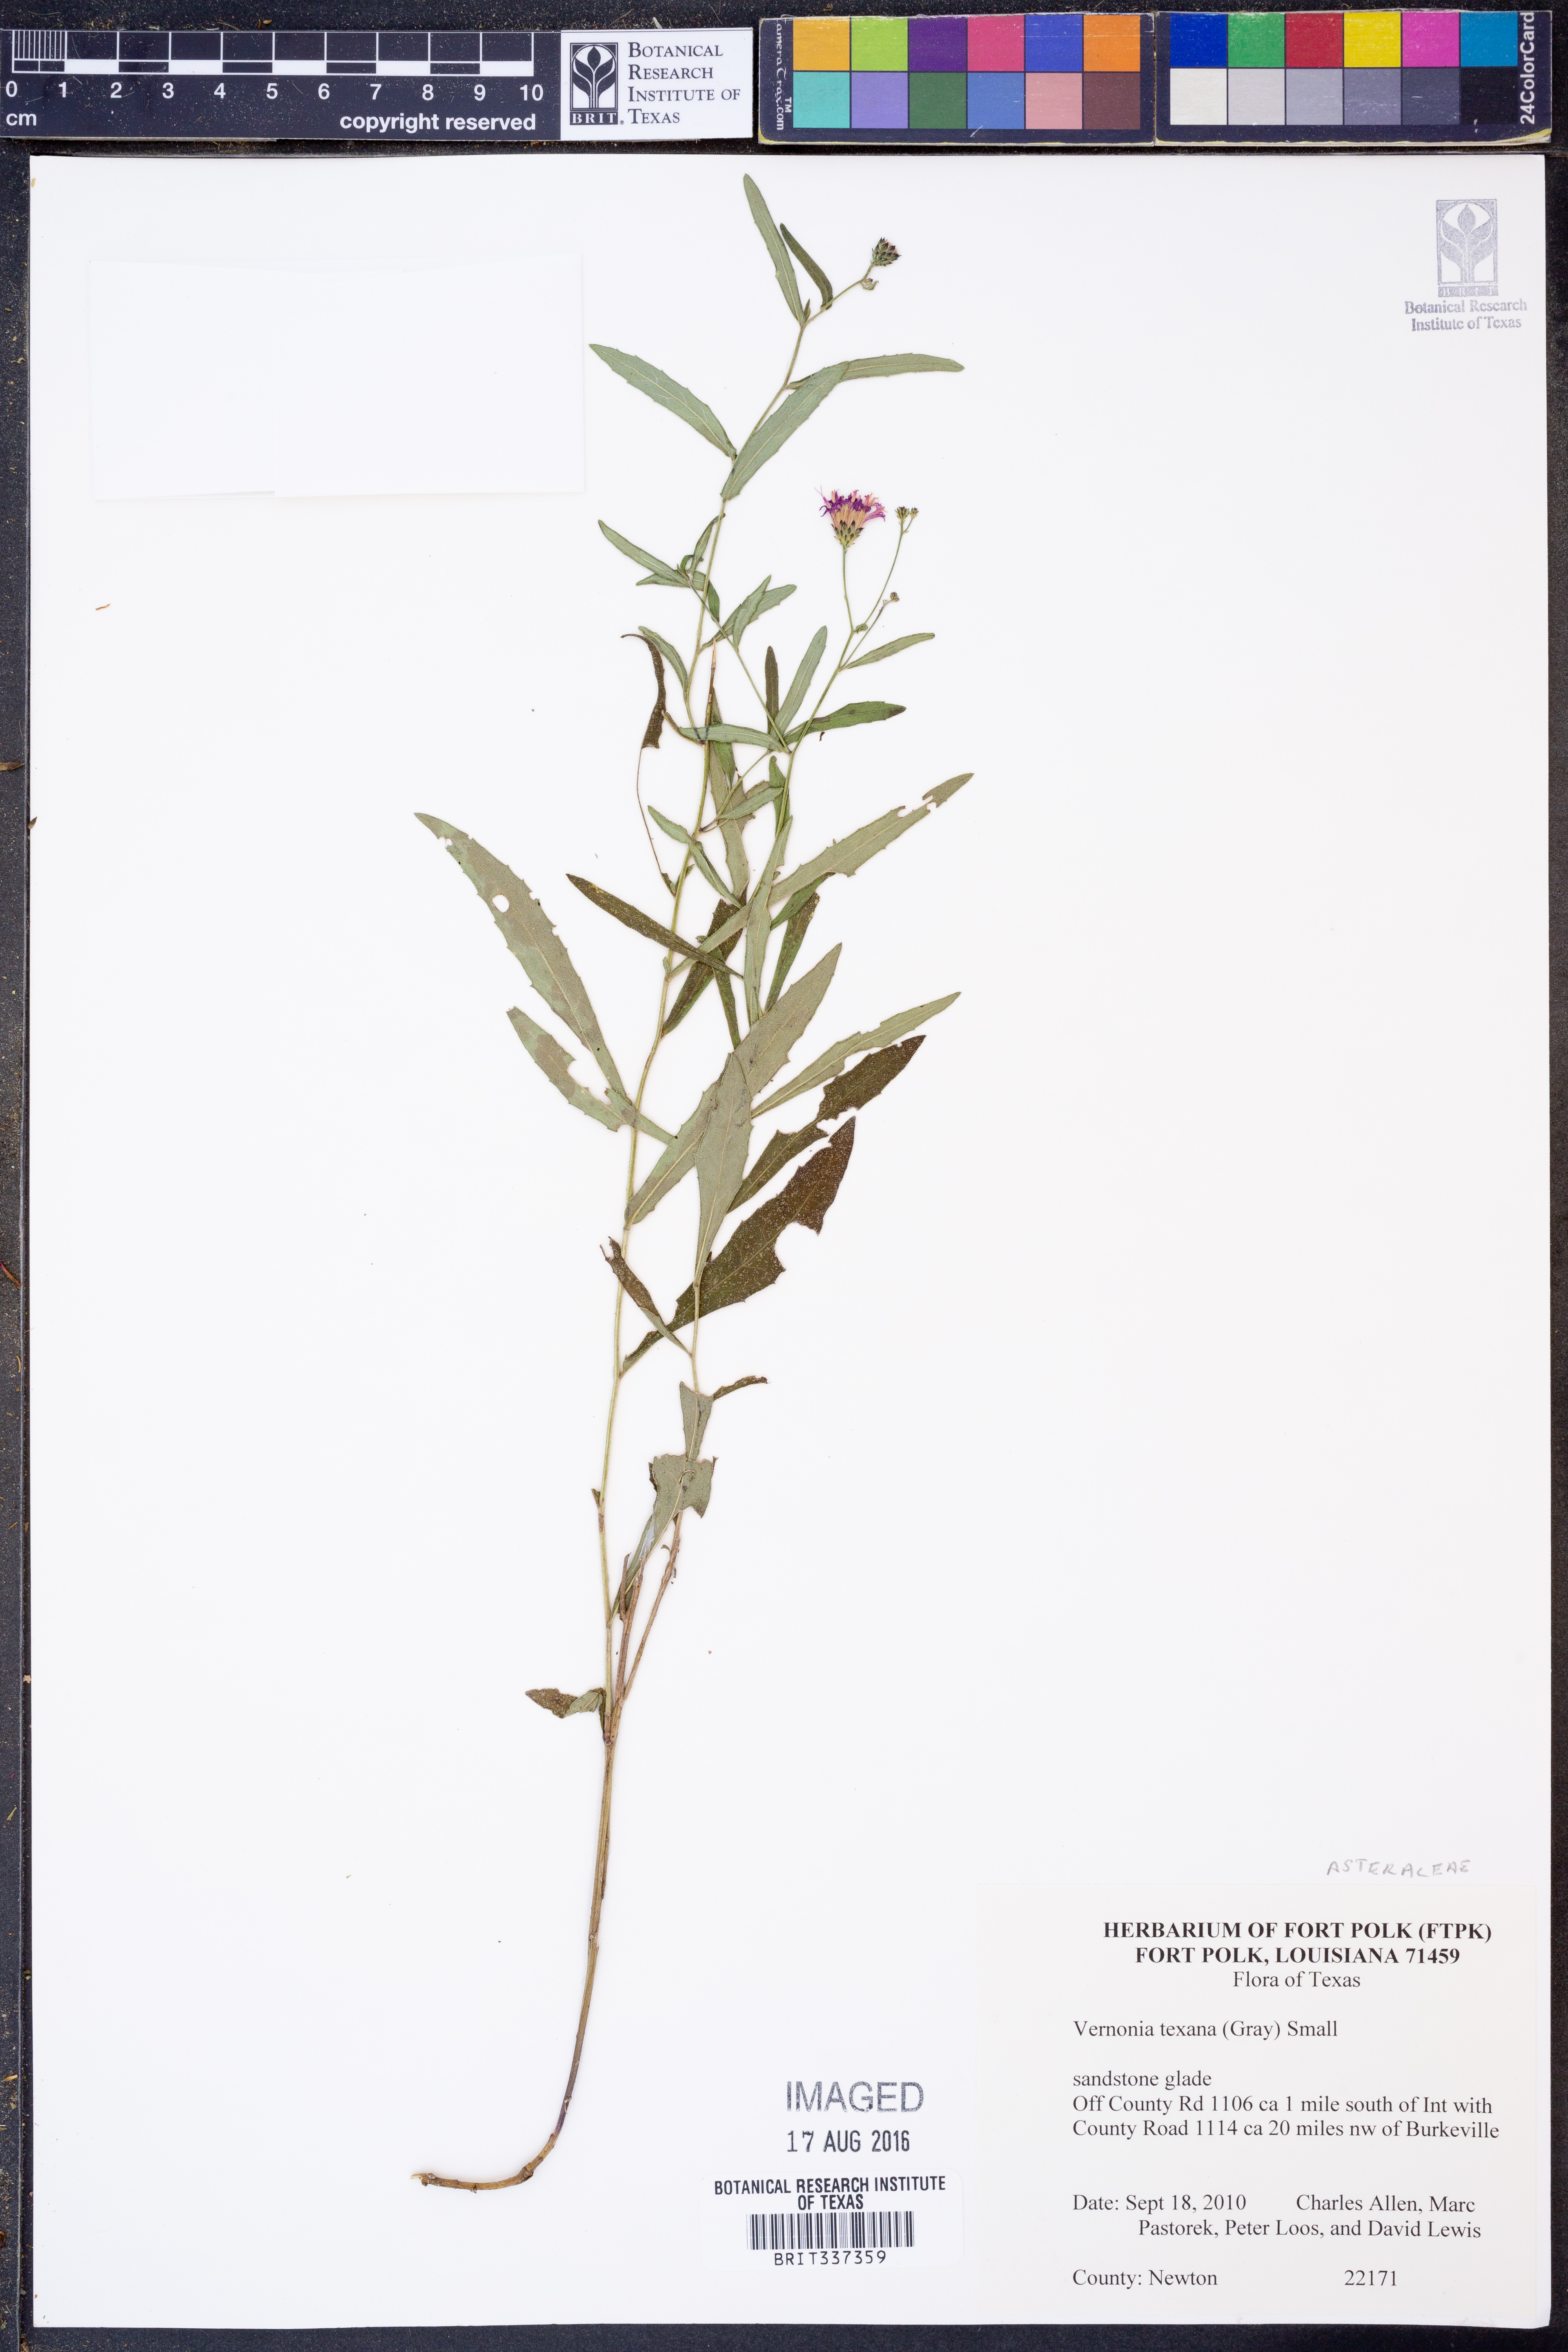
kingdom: Plantae
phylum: Tracheophyta
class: Magnoliopsida
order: Asterales
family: Asteraceae
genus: Vernonia
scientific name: Vernonia texana
